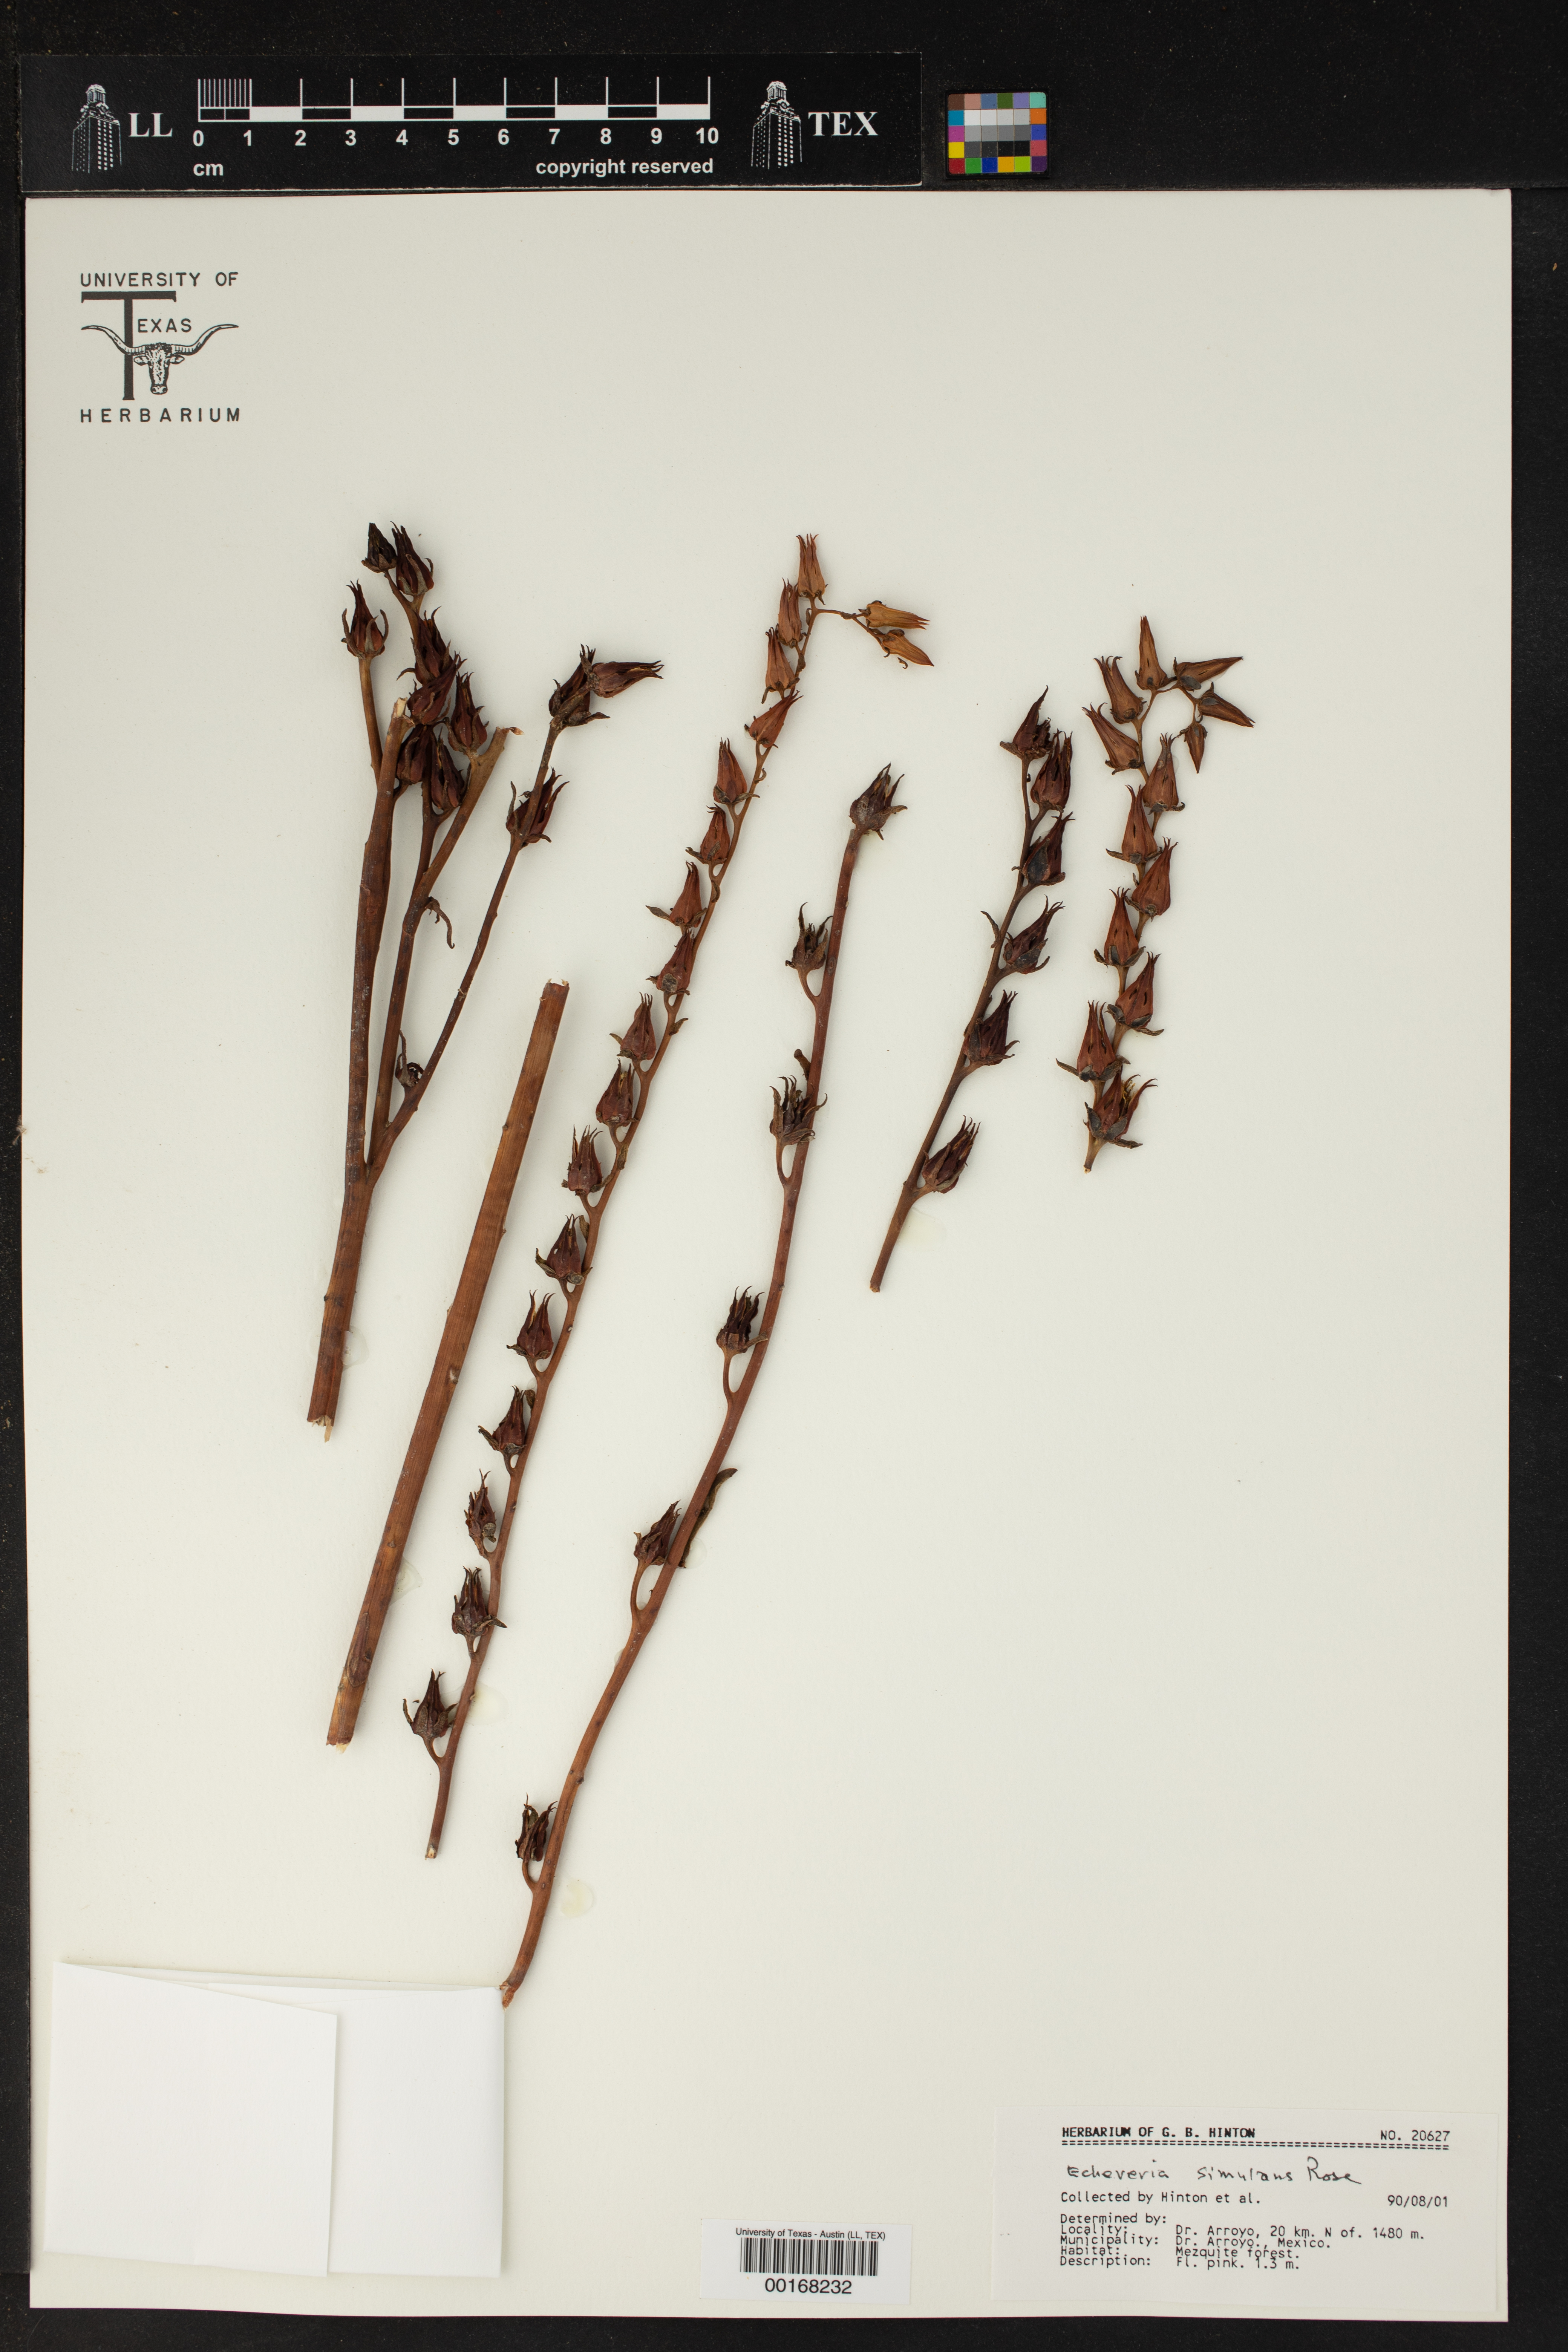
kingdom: Plantae
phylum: Tracheophyta
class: Magnoliopsida
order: Saxifragales
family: Crassulaceae
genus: Echeveria
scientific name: Echeveria simulans
